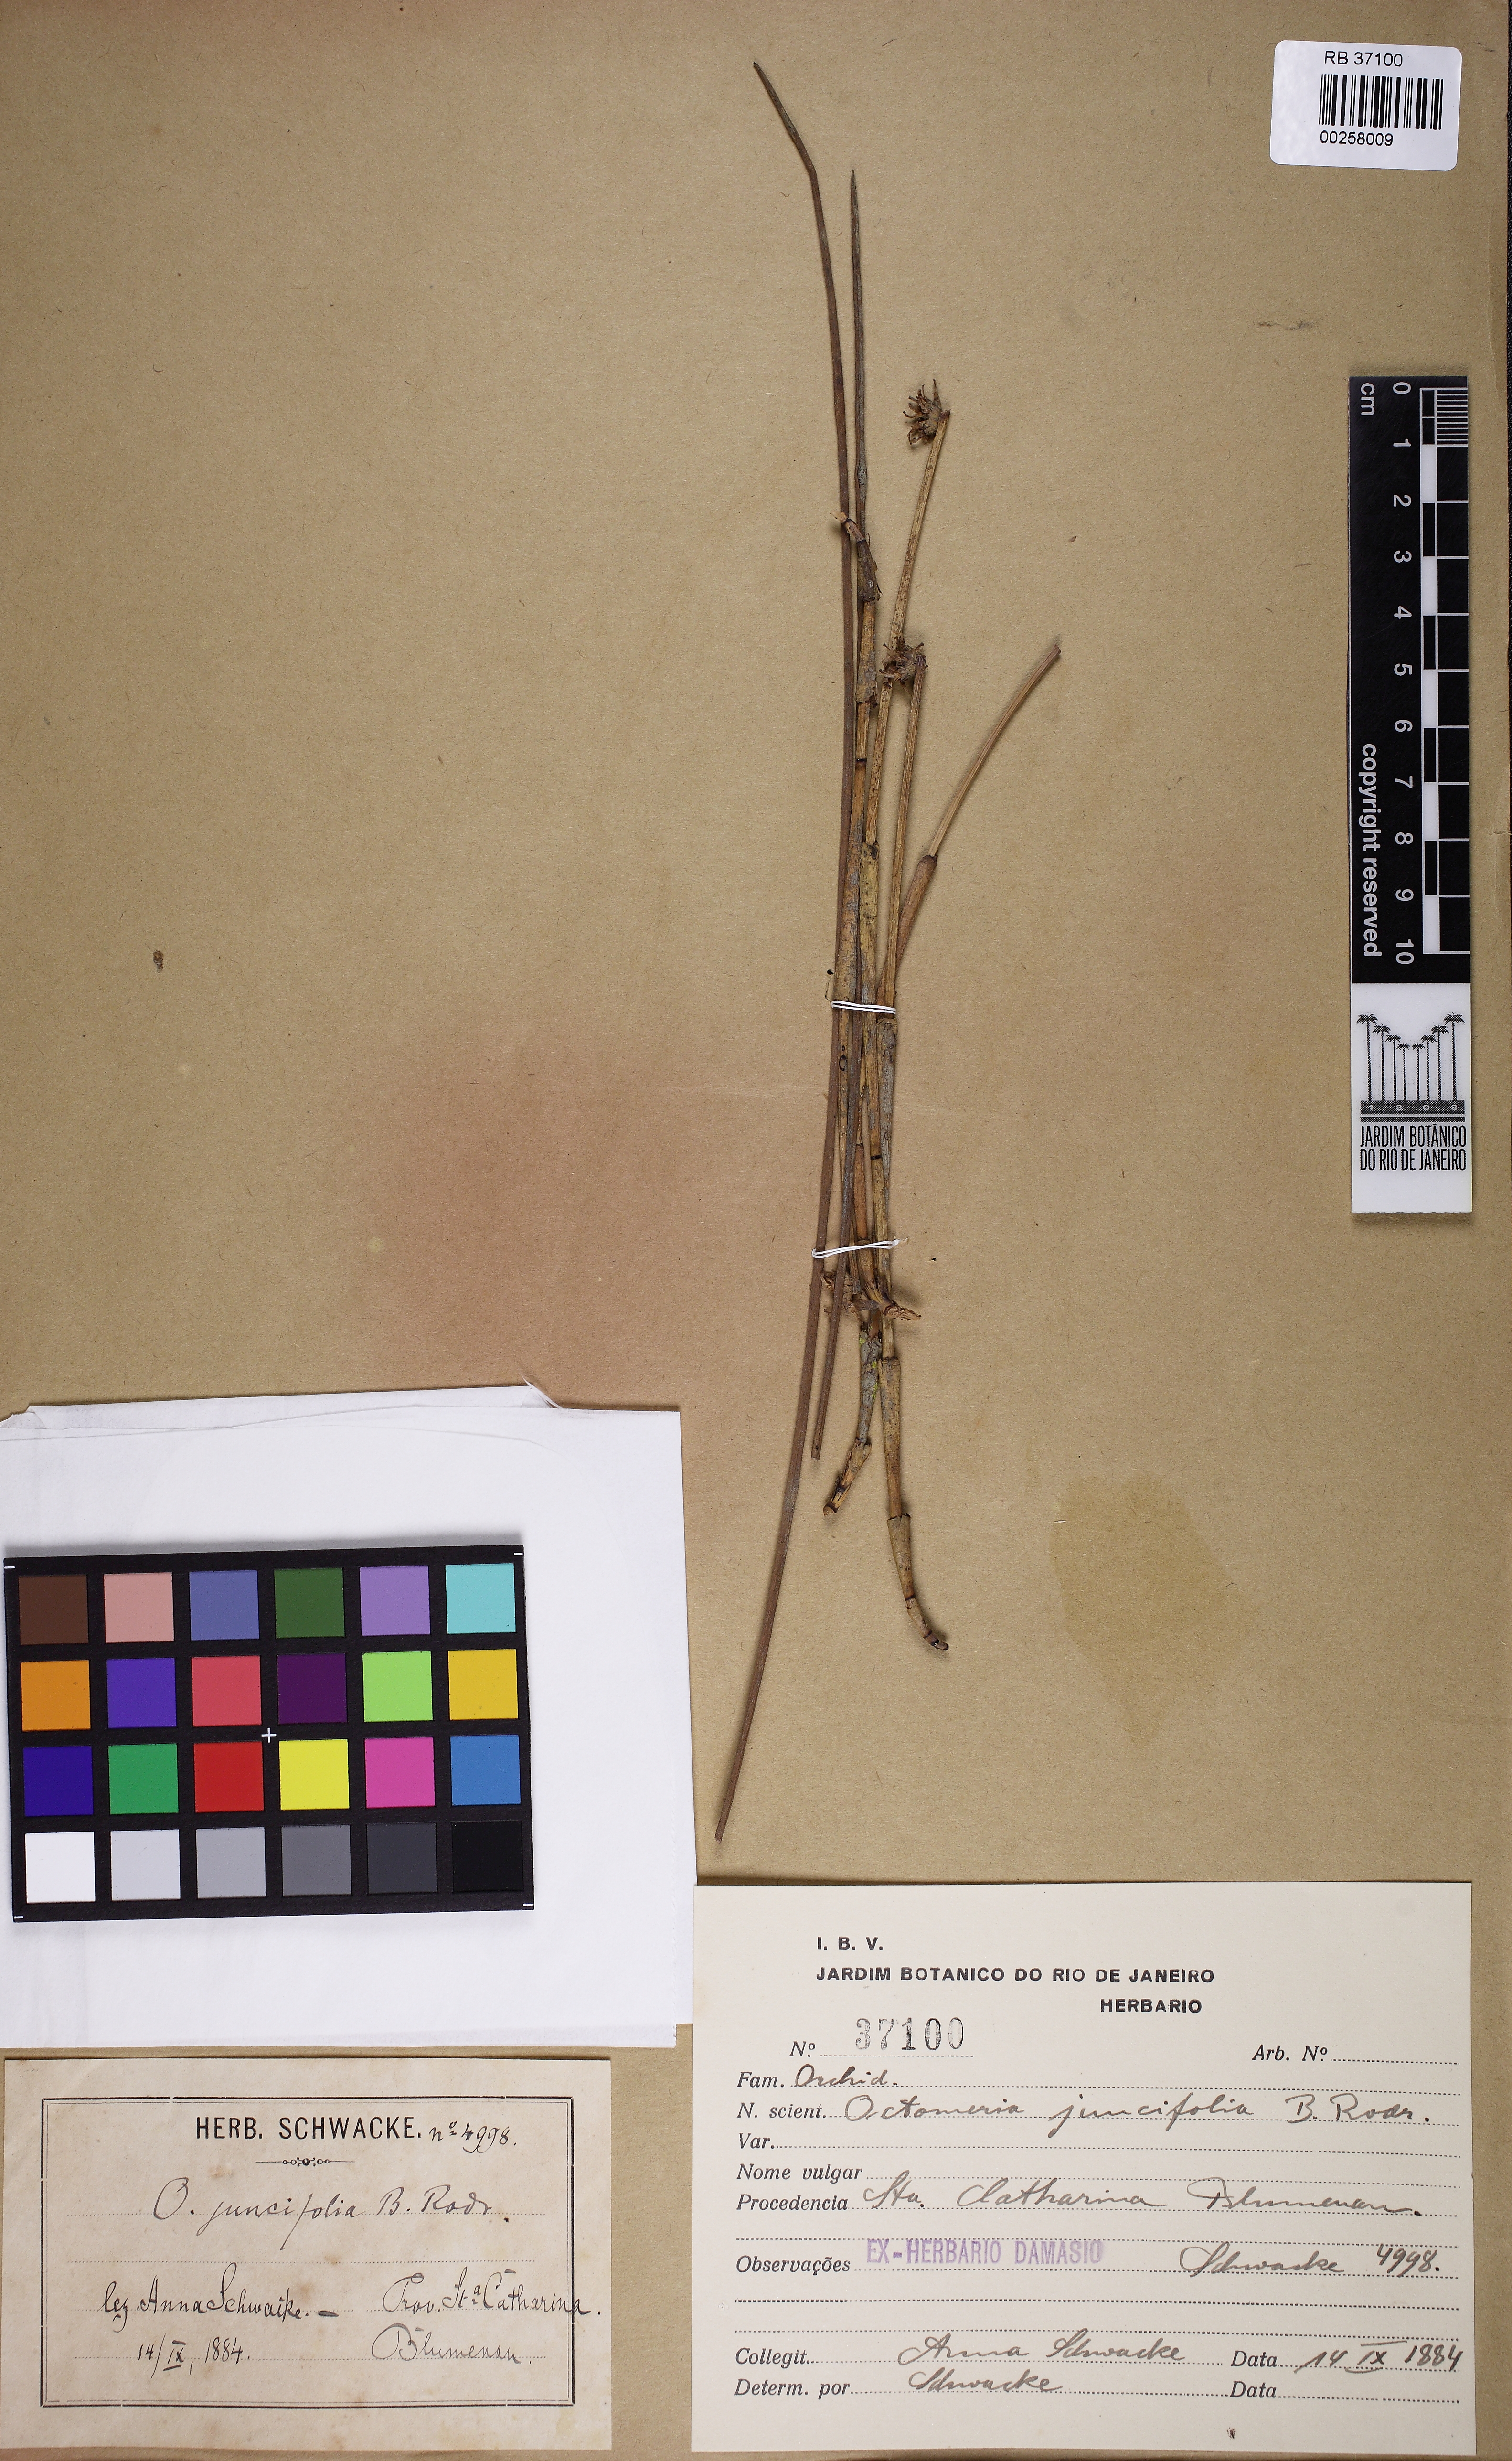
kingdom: Plantae
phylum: Tracheophyta
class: Liliopsida
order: Asparagales
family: Orchidaceae
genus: Octomeria
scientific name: Octomeria juncifolia
